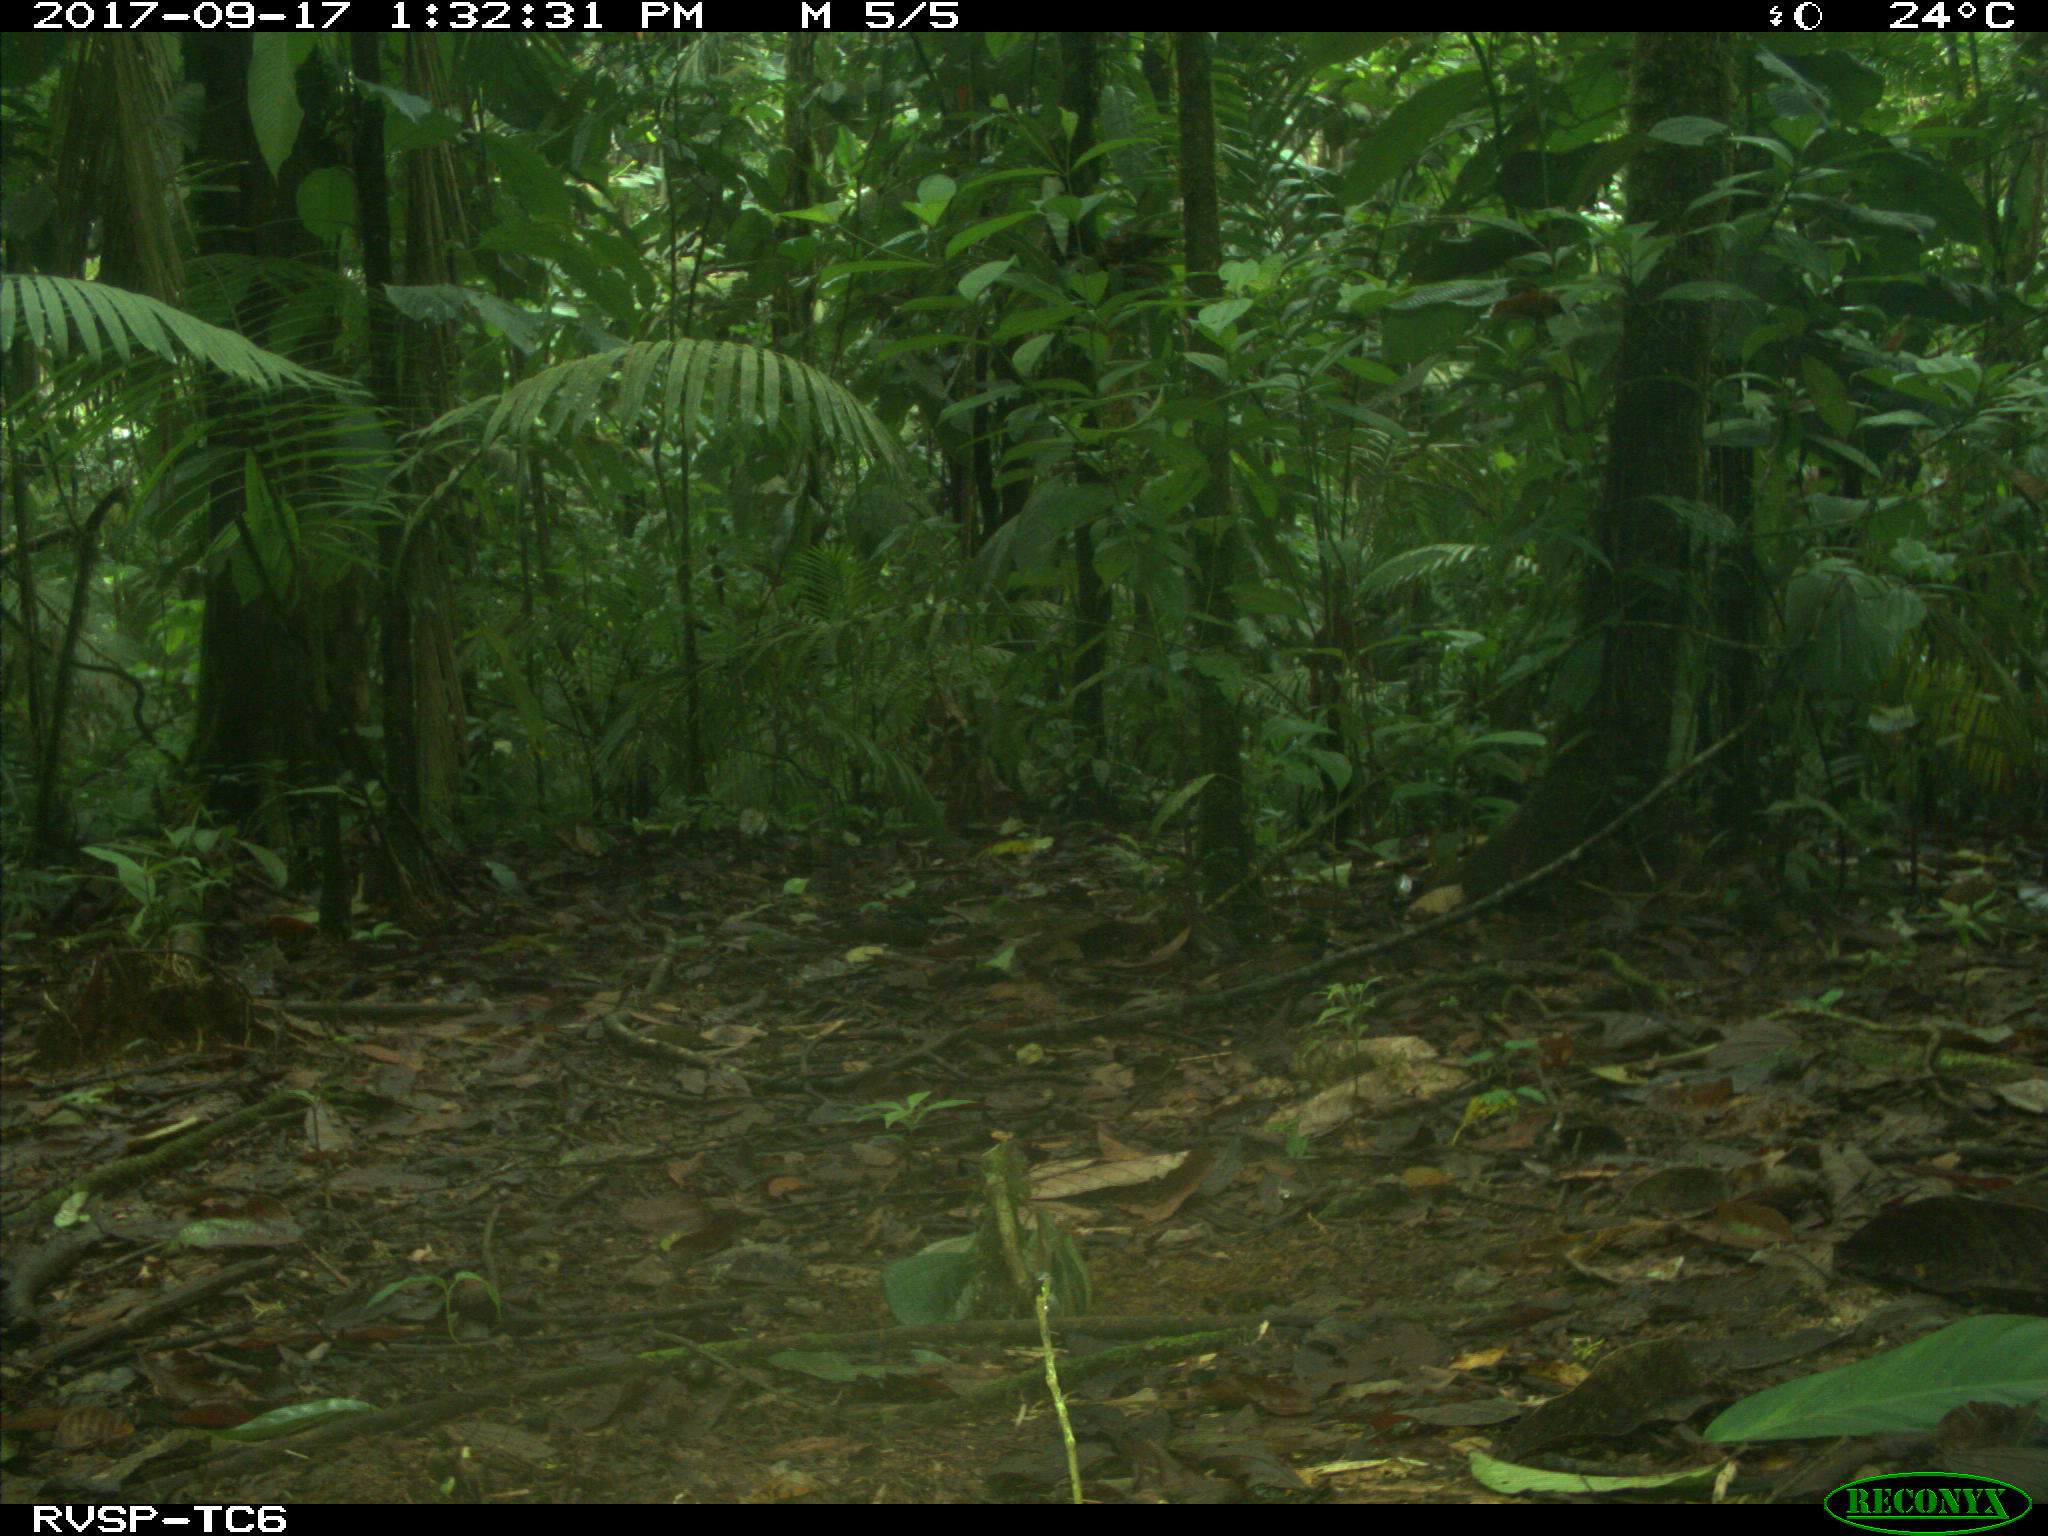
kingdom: Animalia
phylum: Chordata
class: Mammalia
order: Rodentia
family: Dasyproctidae
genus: Dasyprocta
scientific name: Dasyprocta punctata
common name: Central american agouti
